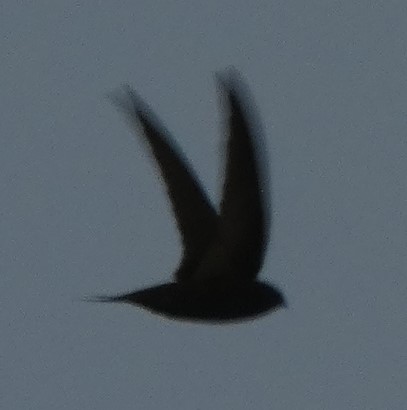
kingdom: Animalia
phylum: Chordata
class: Aves
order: Apodiformes
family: Apodidae
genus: Apus
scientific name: Apus apus
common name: Mursejler
